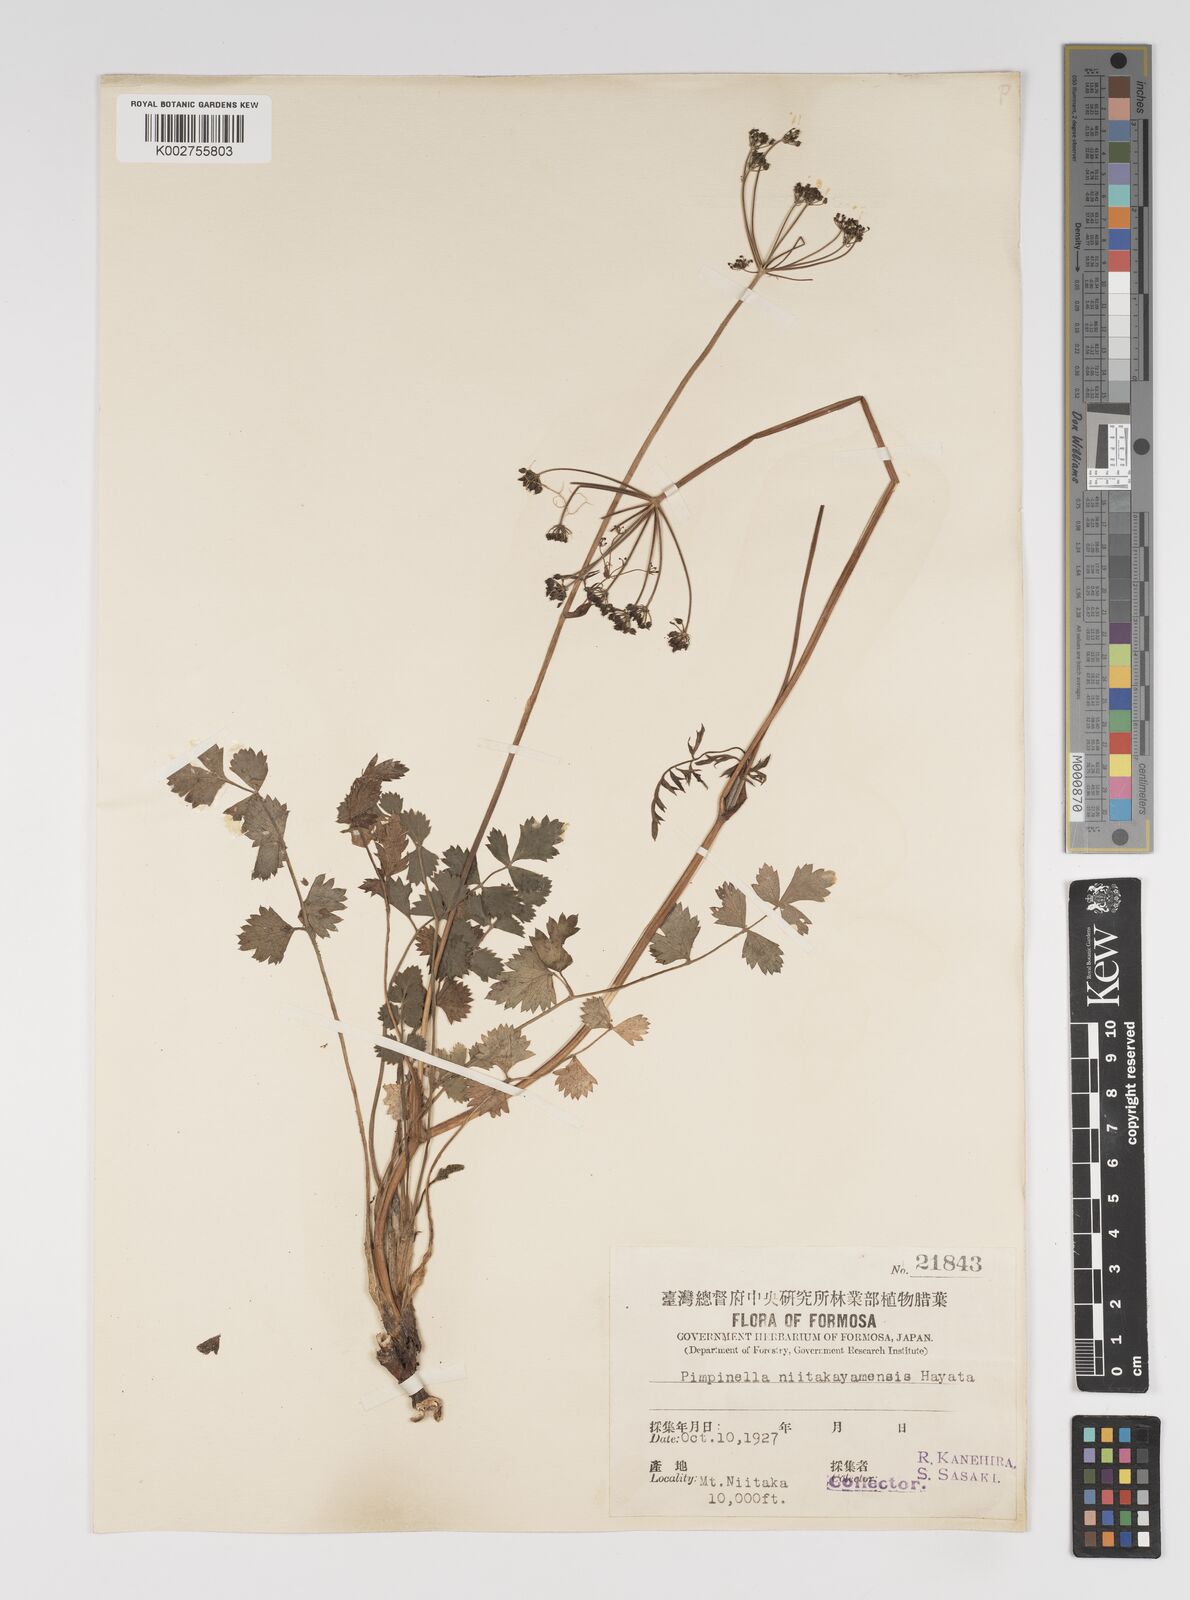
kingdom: Plantae
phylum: Tracheophyta
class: Magnoliopsida
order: Apiales
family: Apiaceae
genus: Pimpinella
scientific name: Pimpinella niitakayamensis
